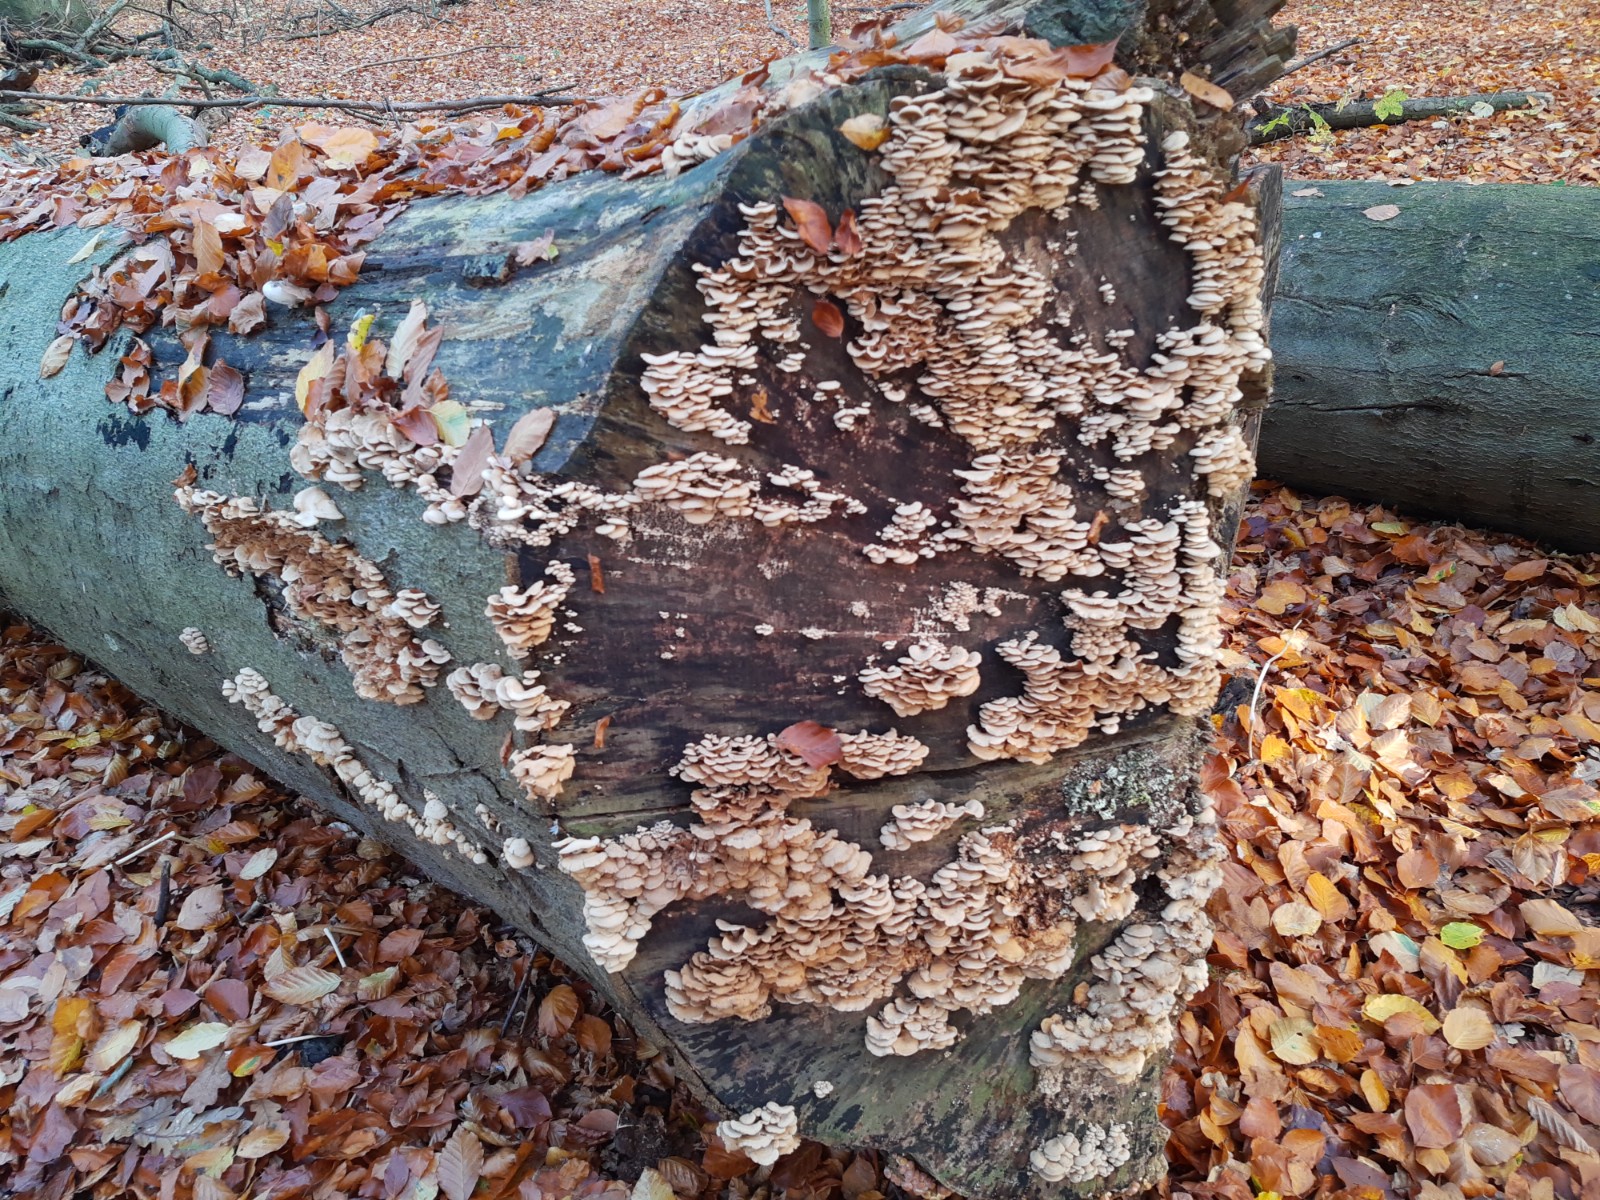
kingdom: Fungi
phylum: Basidiomycota
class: Agaricomycetes
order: Agaricales
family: Mycenaceae
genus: Panellus
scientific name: Panellus stipticus
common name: kliddet epaulethat
